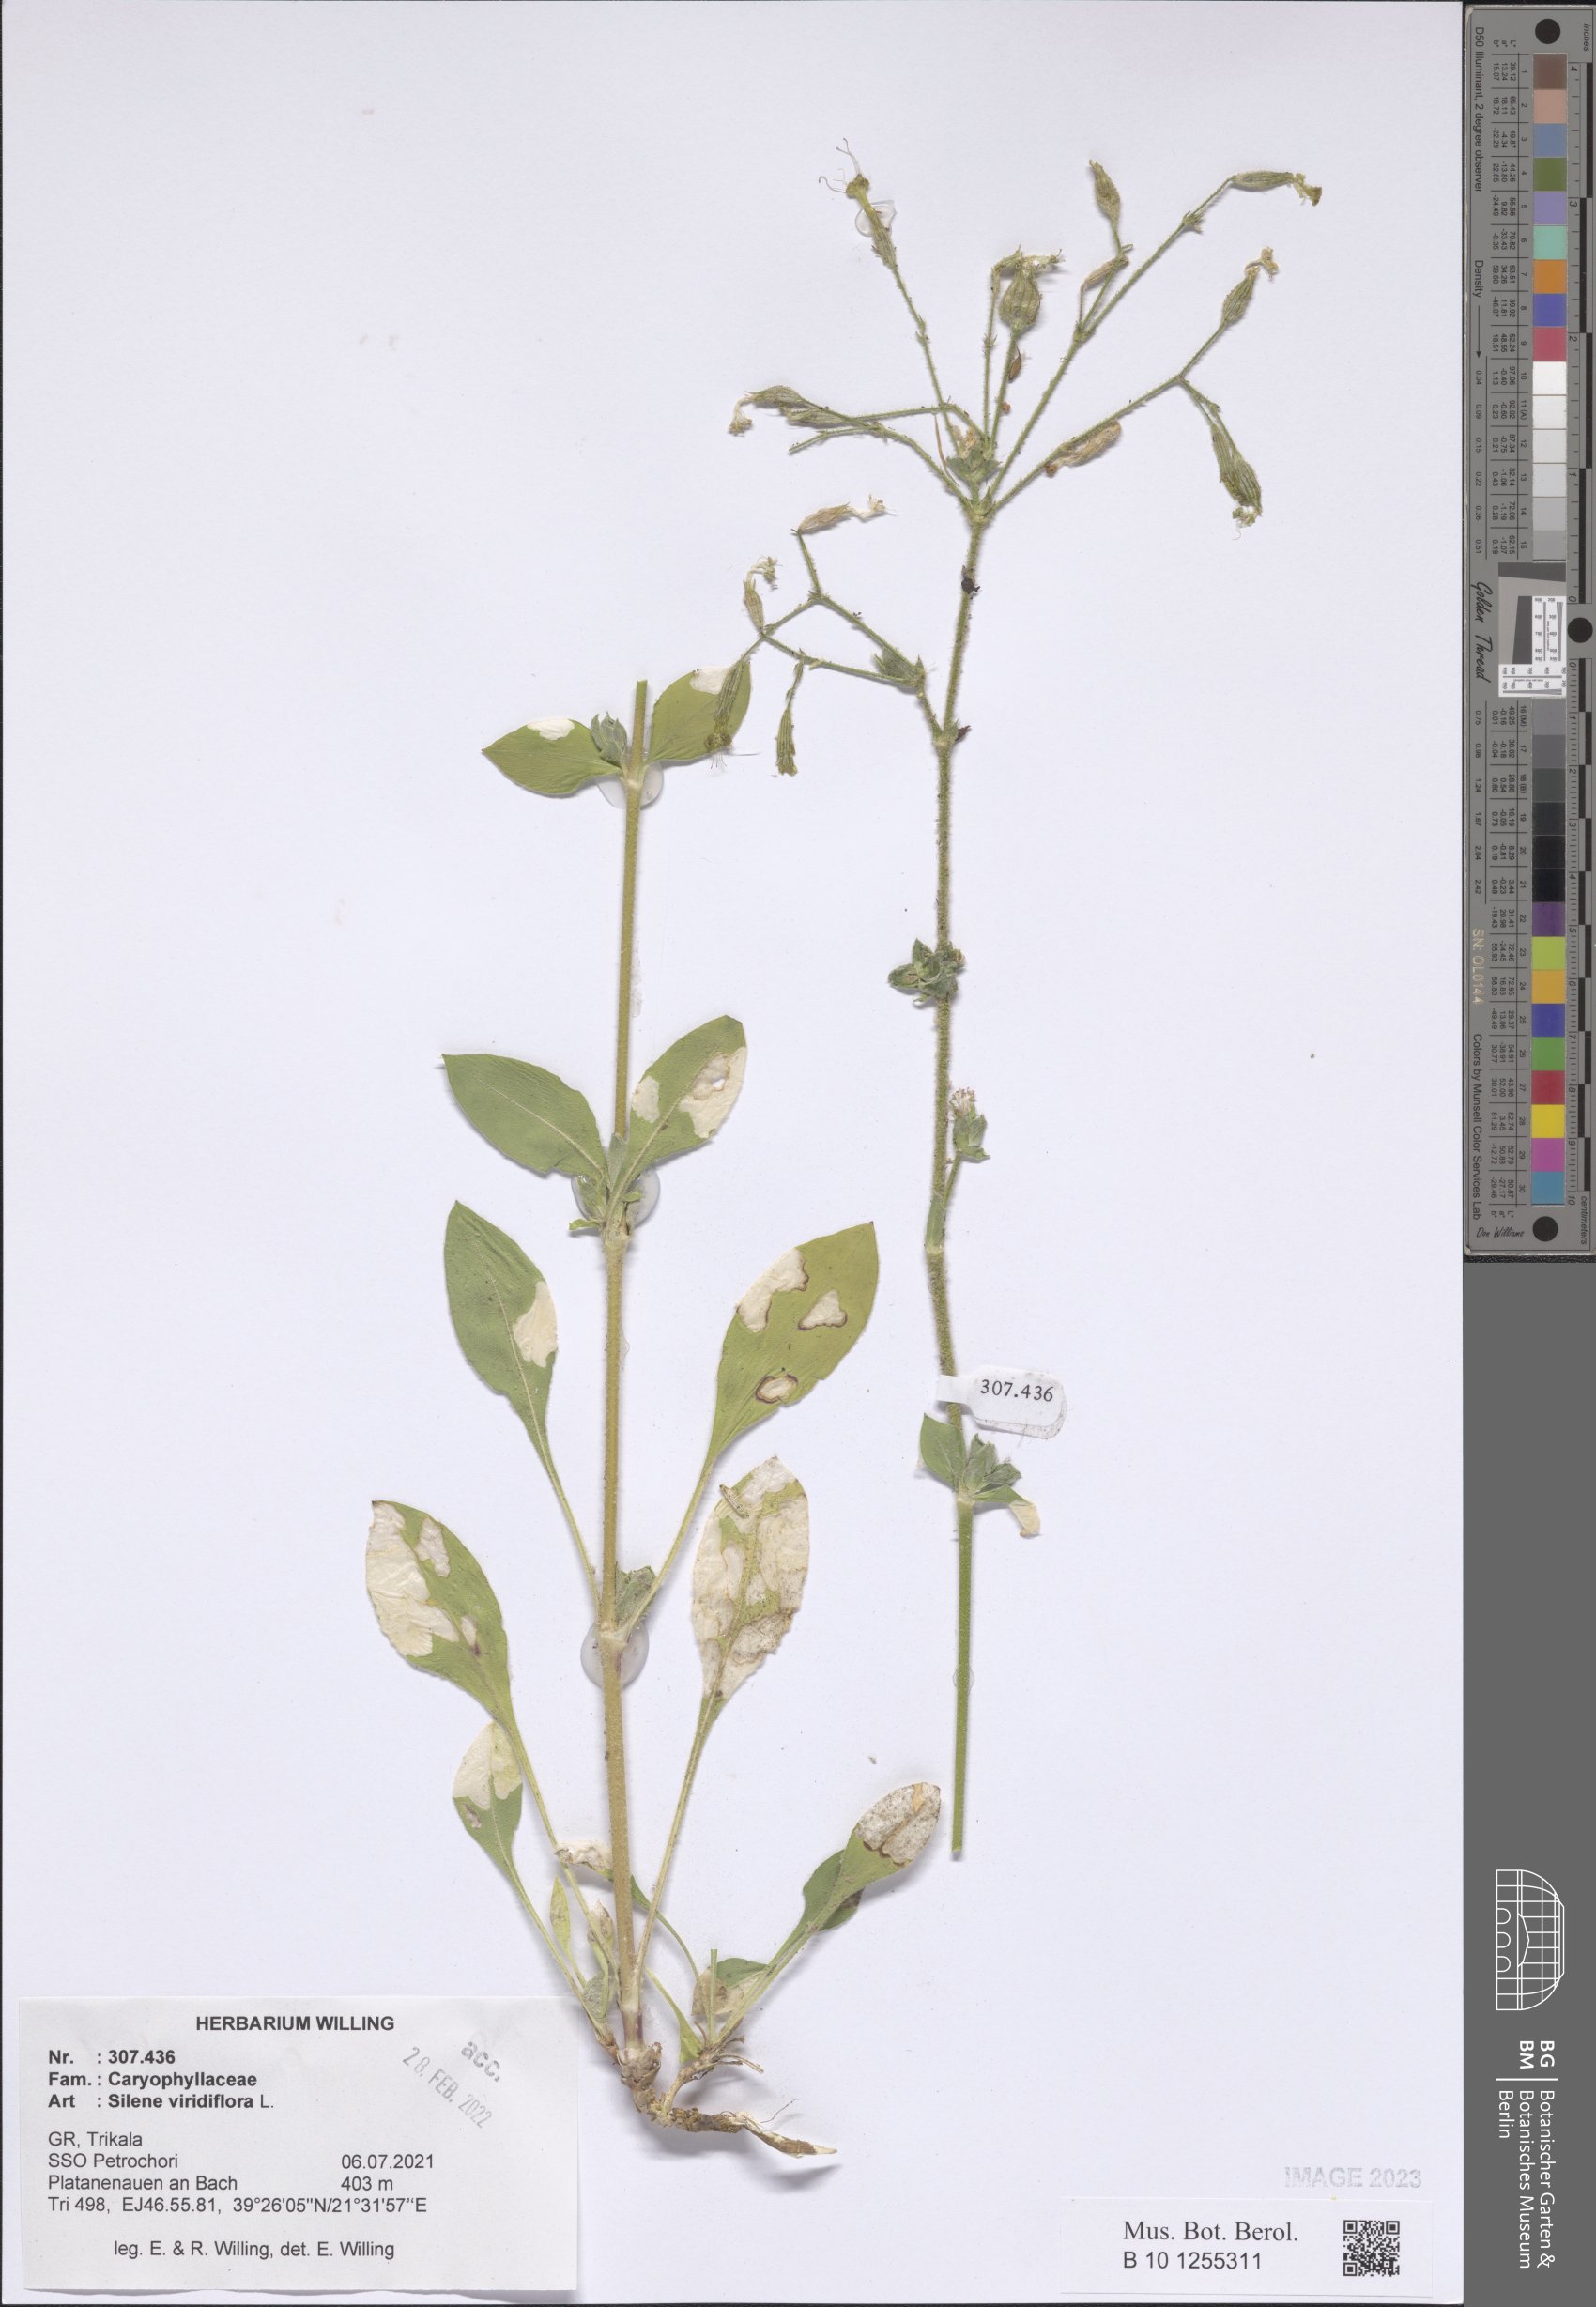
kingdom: Plantae
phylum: Tracheophyta
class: Magnoliopsida
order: Caryophyllales
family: Caryophyllaceae
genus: Silene
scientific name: Silene viridiflora
